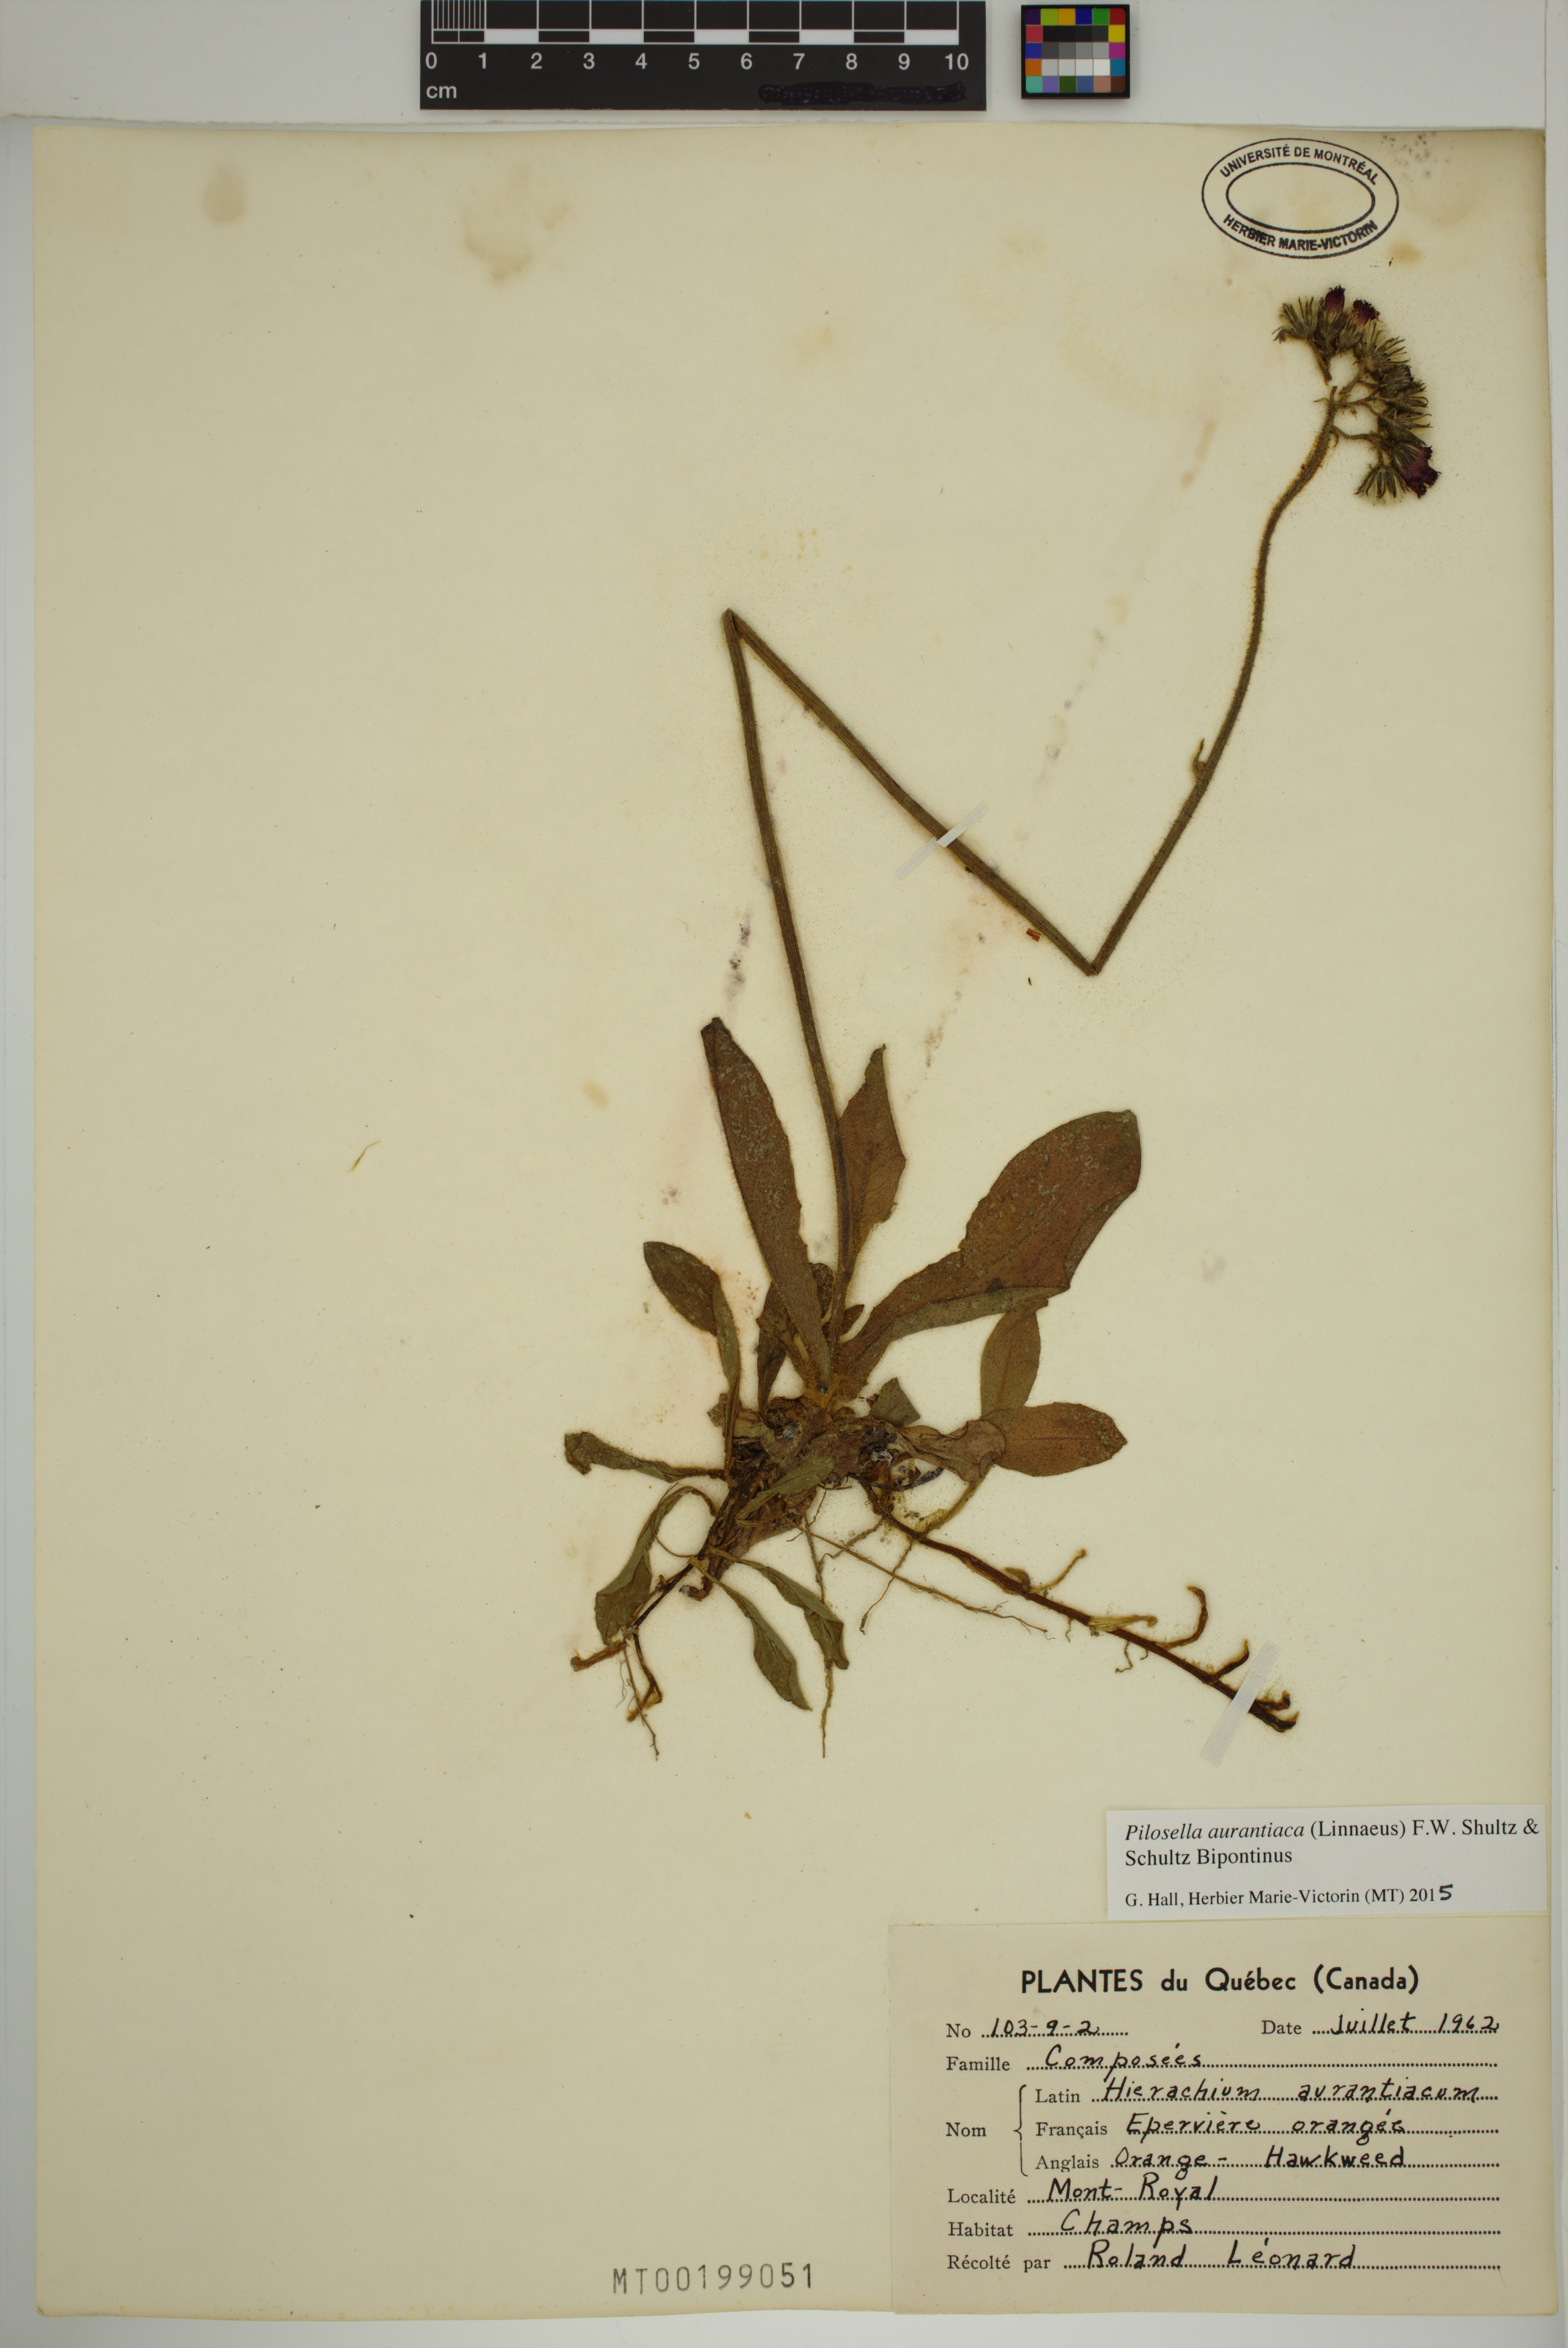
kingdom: Plantae
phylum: Tracheophyta
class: Magnoliopsida
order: Asterales
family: Asteraceae
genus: Pilosella
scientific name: Pilosella aurantiaca
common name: Fox-and-cubs
